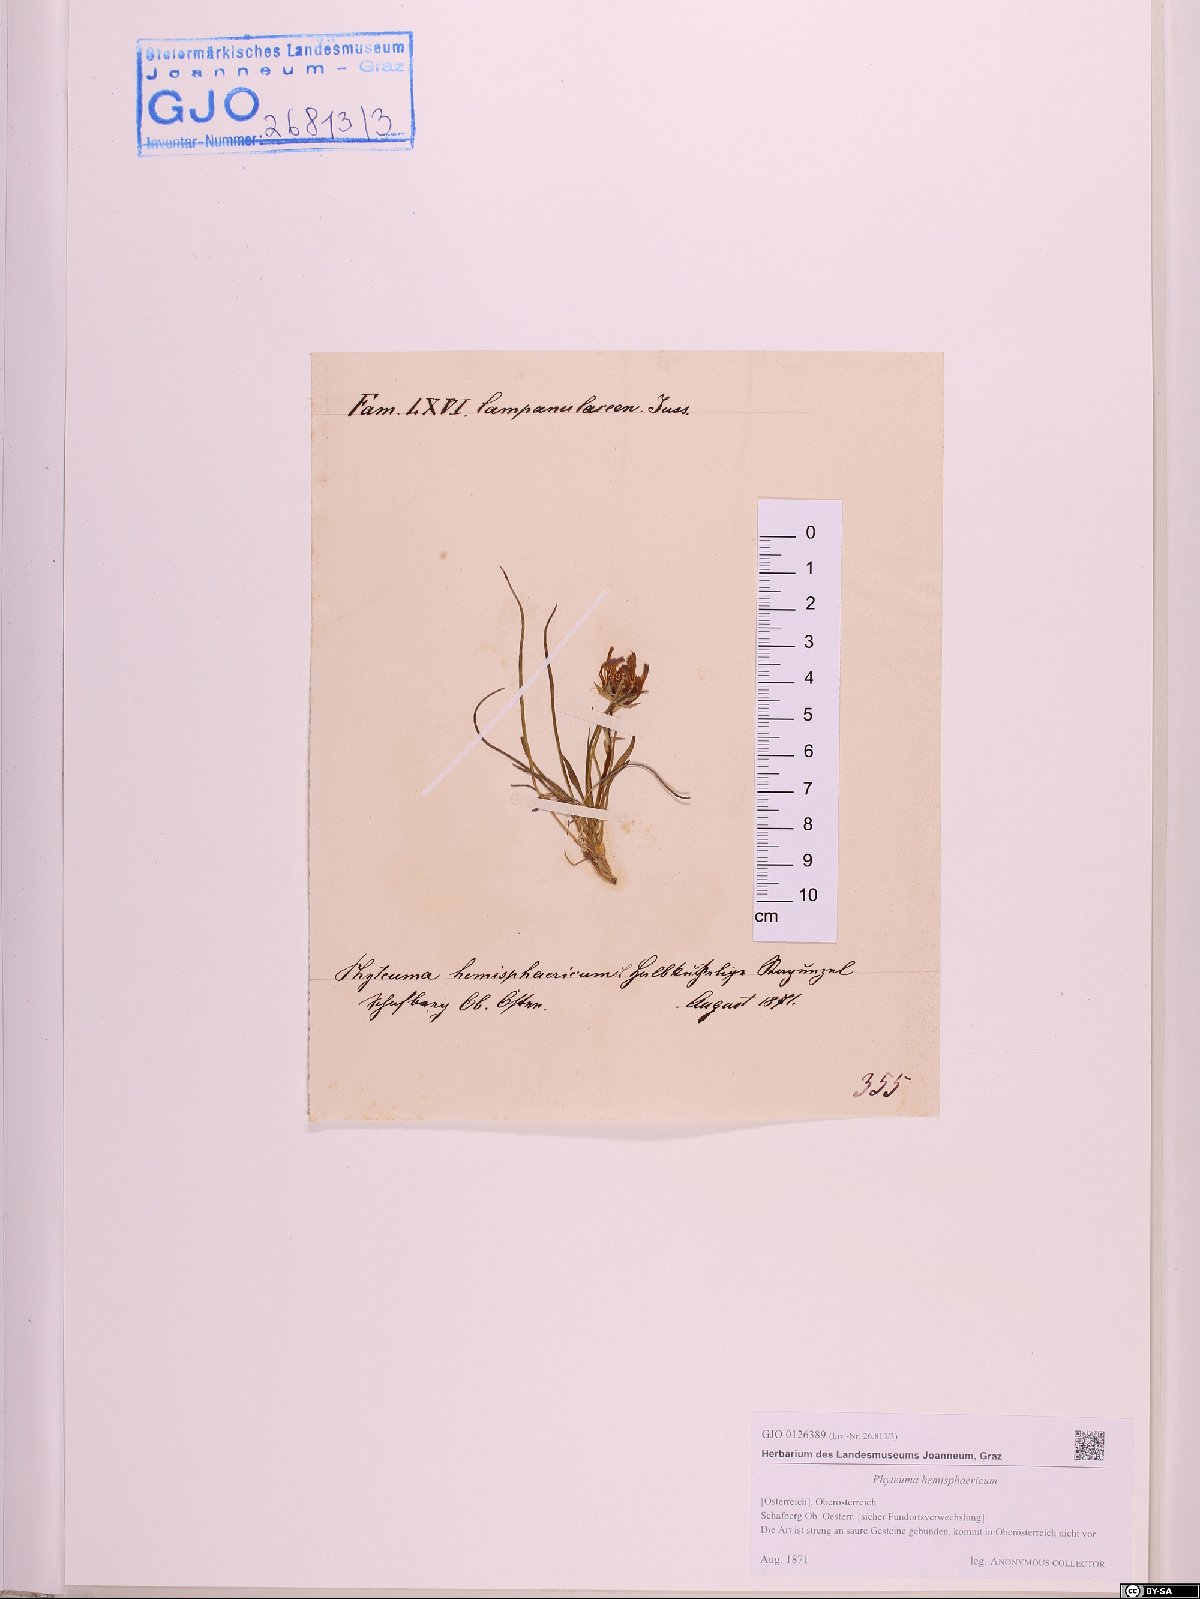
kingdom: Plantae
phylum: Tracheophyta
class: Magnoliopsida
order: Asterales
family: Campanulaceae
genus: Phyteuma
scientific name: Phyteuma hemisphaericum
